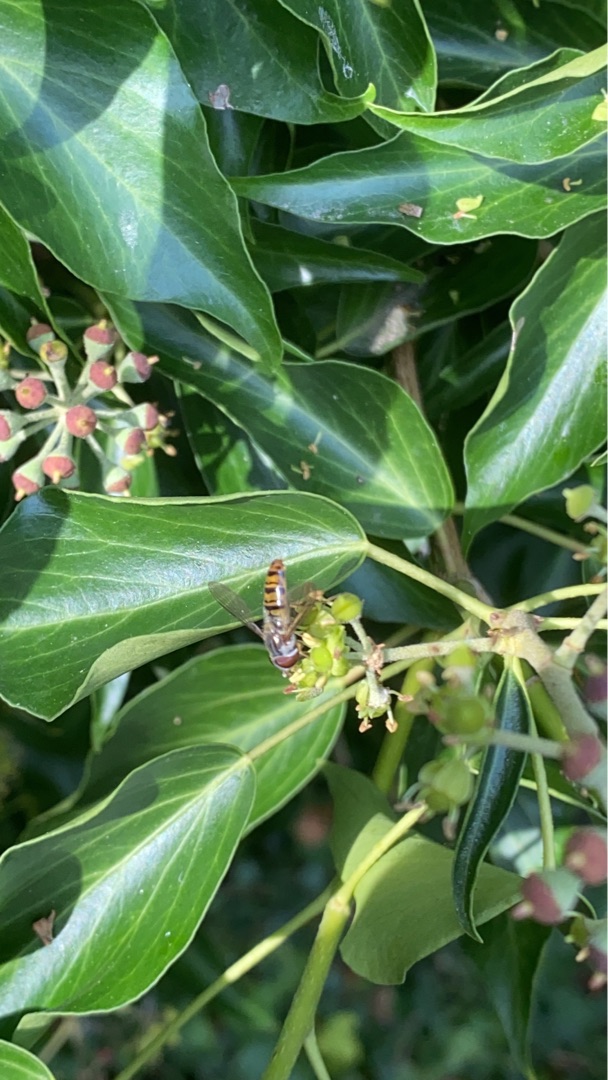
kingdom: Animalia
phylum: Arthropoda
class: Insecta
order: Diptera
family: Syrphidae
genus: Episyrphus
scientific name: Episyrphus balteatus
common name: Dobbeltbåndet svirreflue
